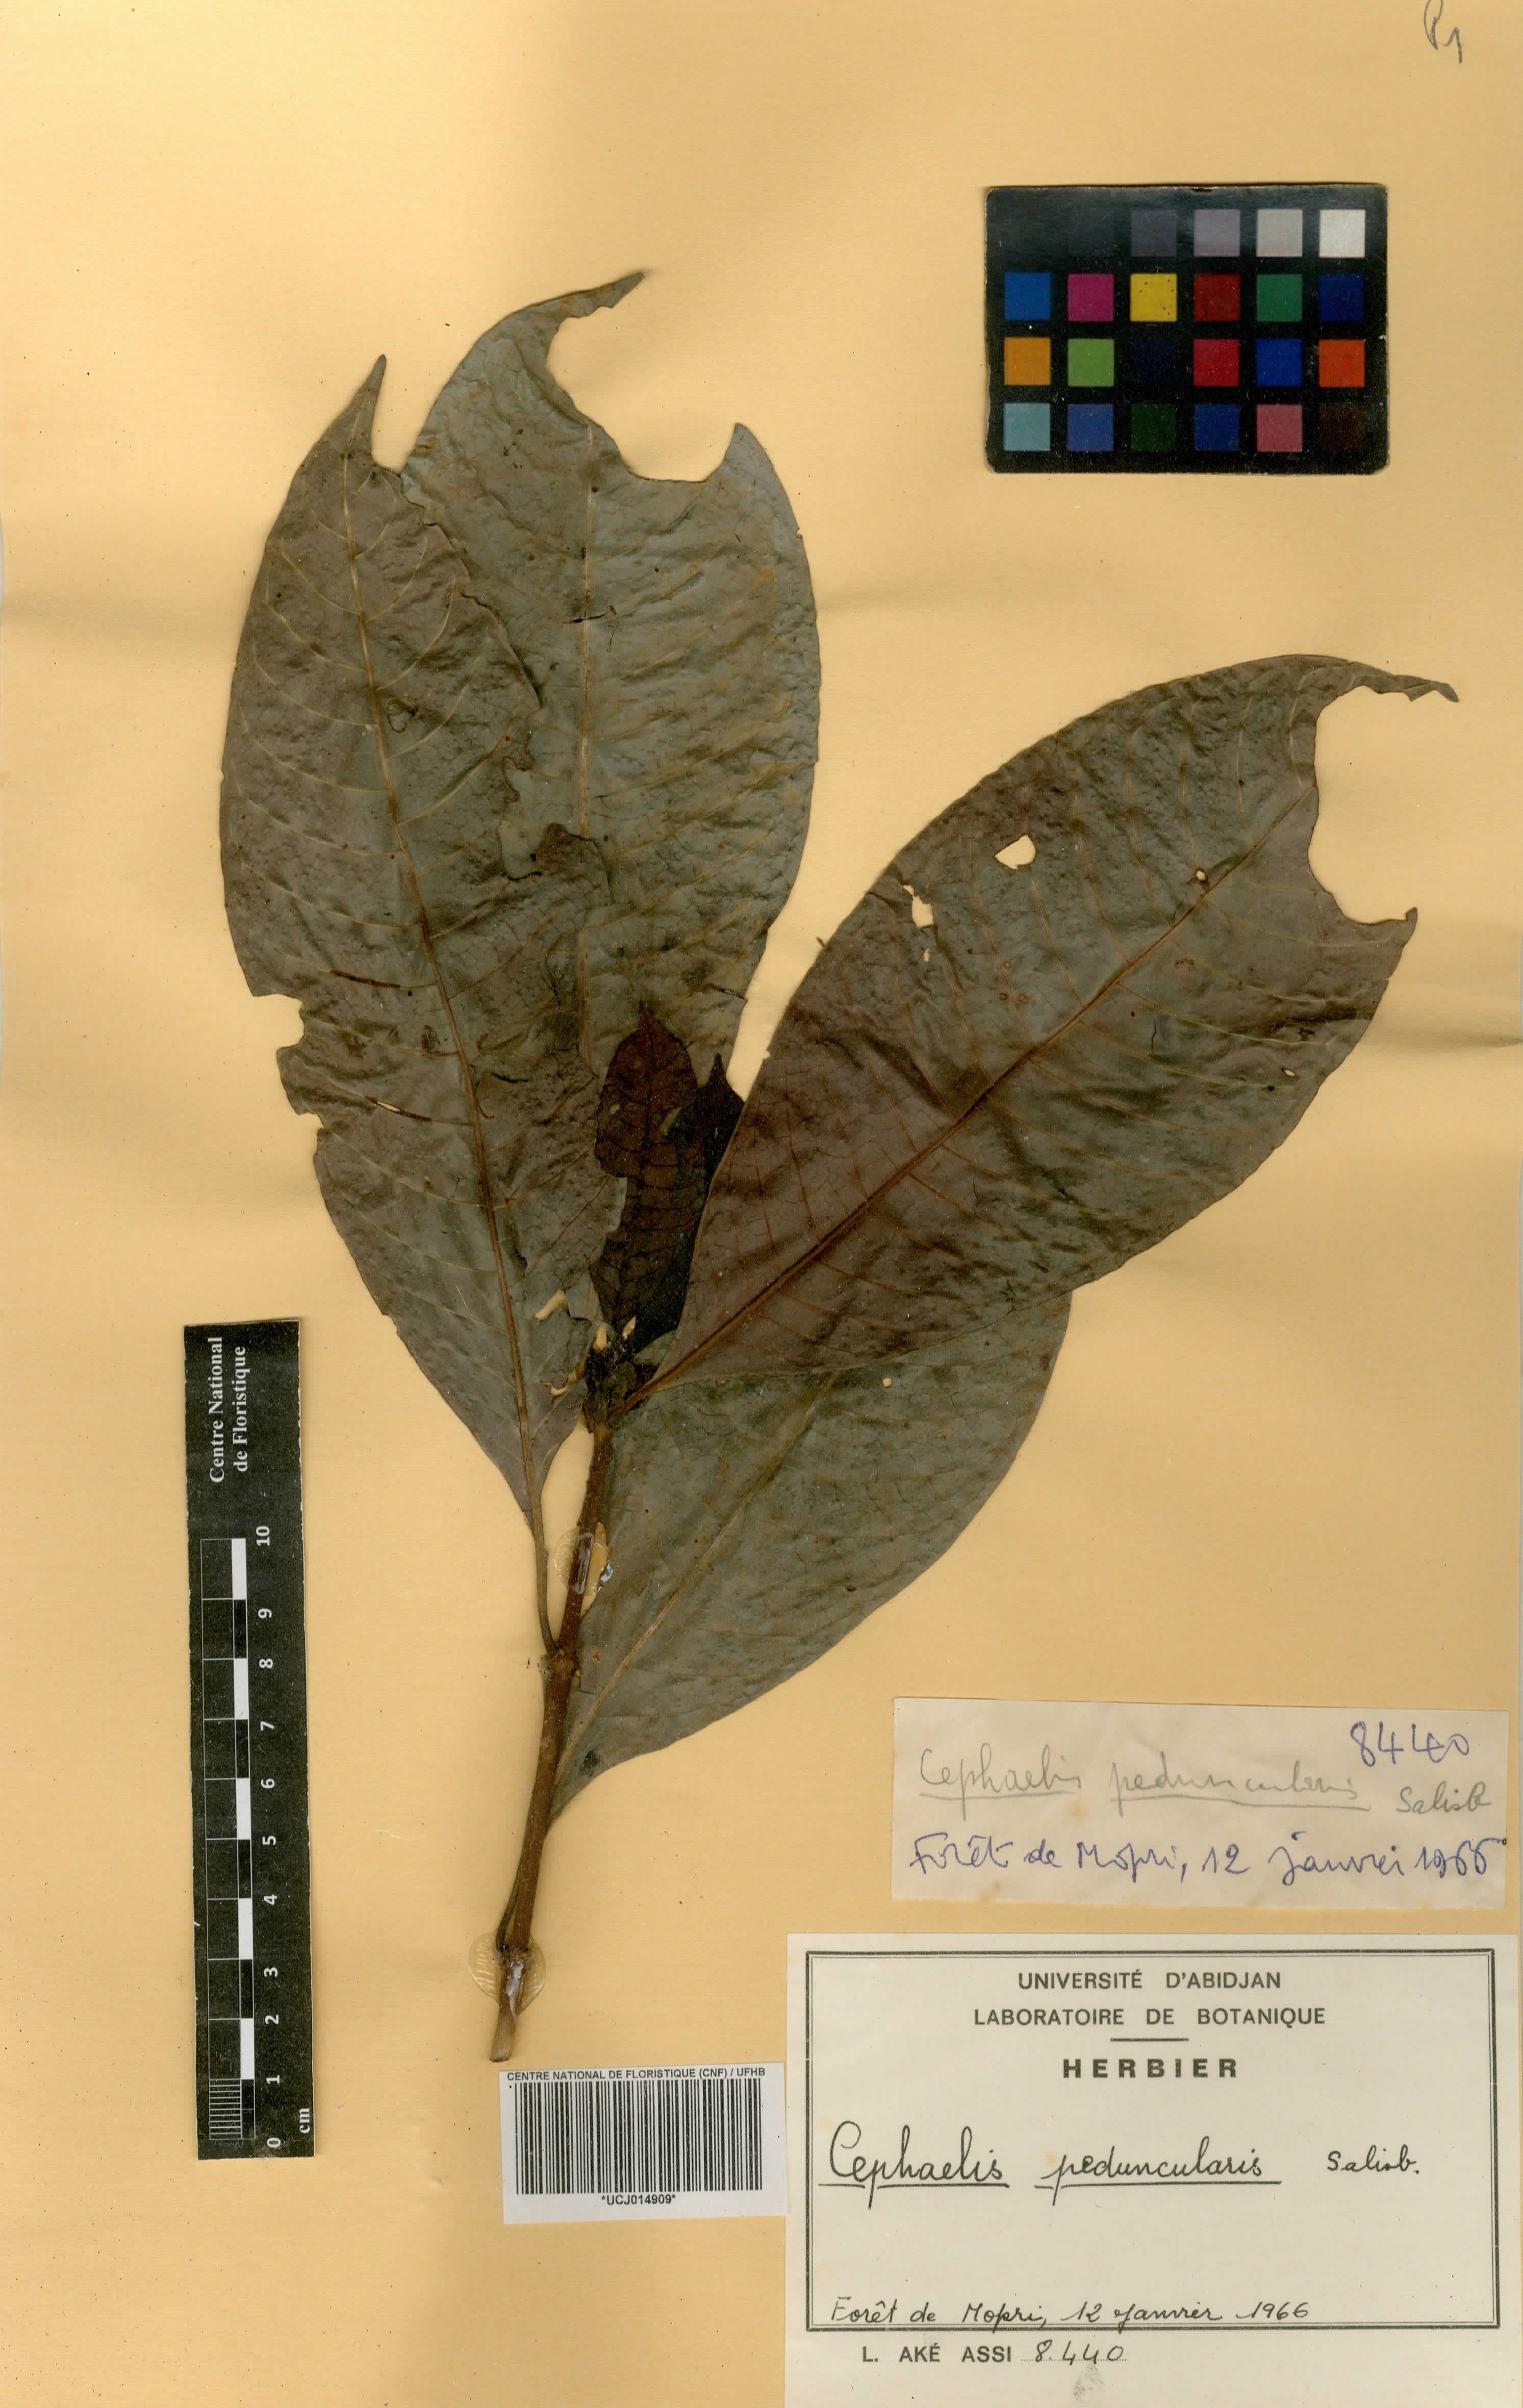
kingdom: Plantae
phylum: Tracheophyta
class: Magnoliopsida
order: Gentianales
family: Rubiaceae
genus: Psychotria
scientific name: Psychotria peduncularis
